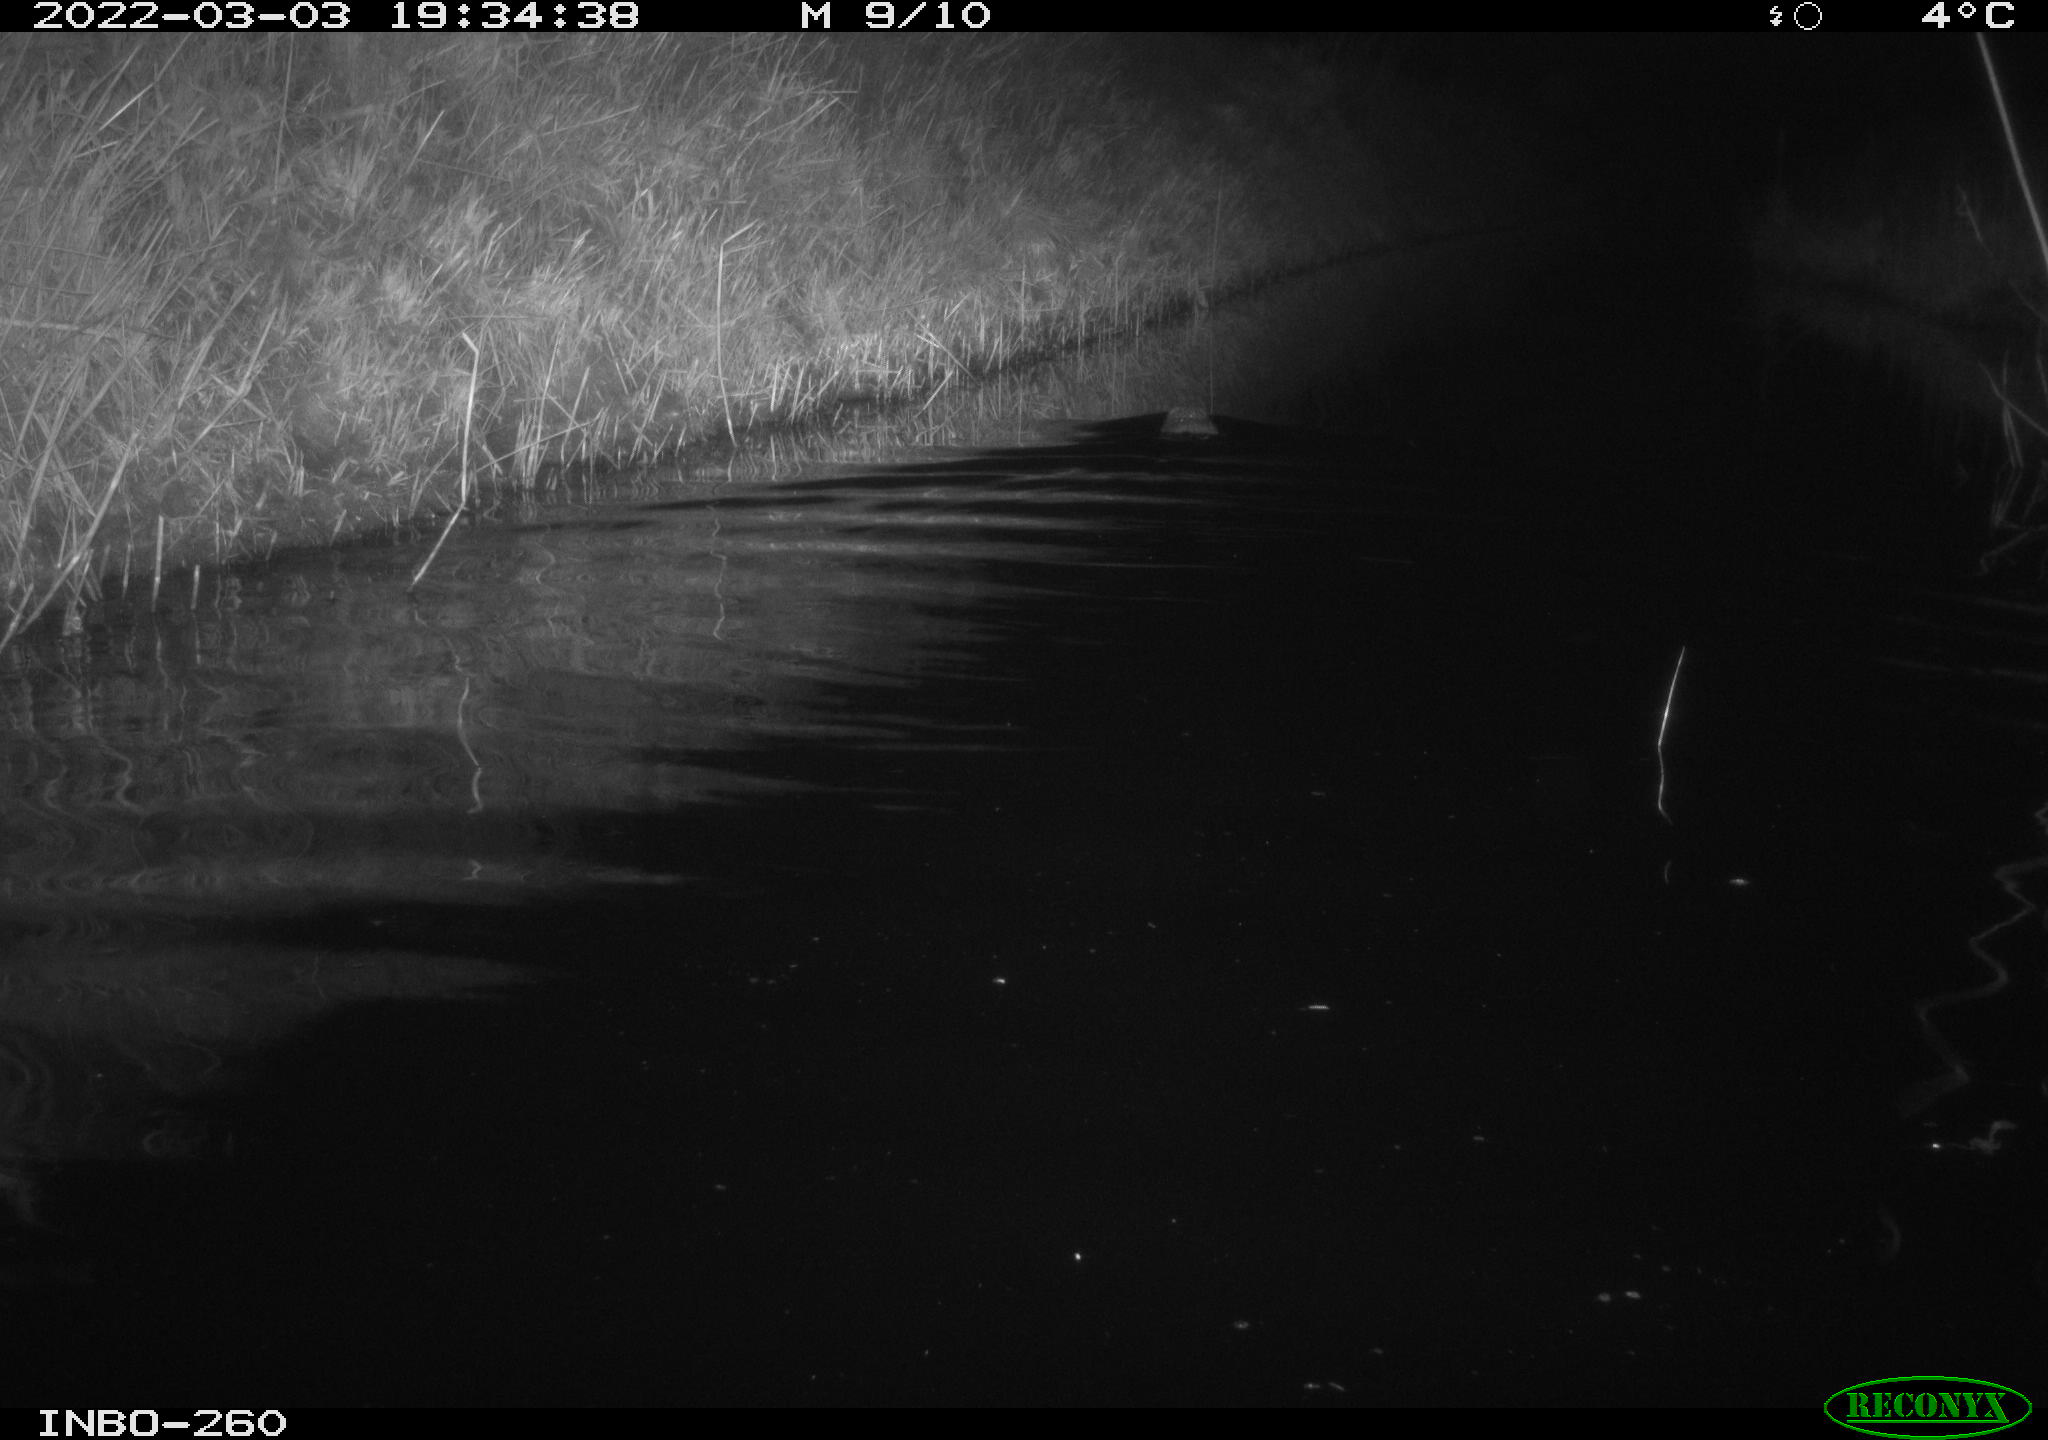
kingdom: Animalia
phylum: Chordata
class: Mammalia
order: Rodentia
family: Cricetidae
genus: Ondatra
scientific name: Ondatra zibethicus
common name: Muskrat
